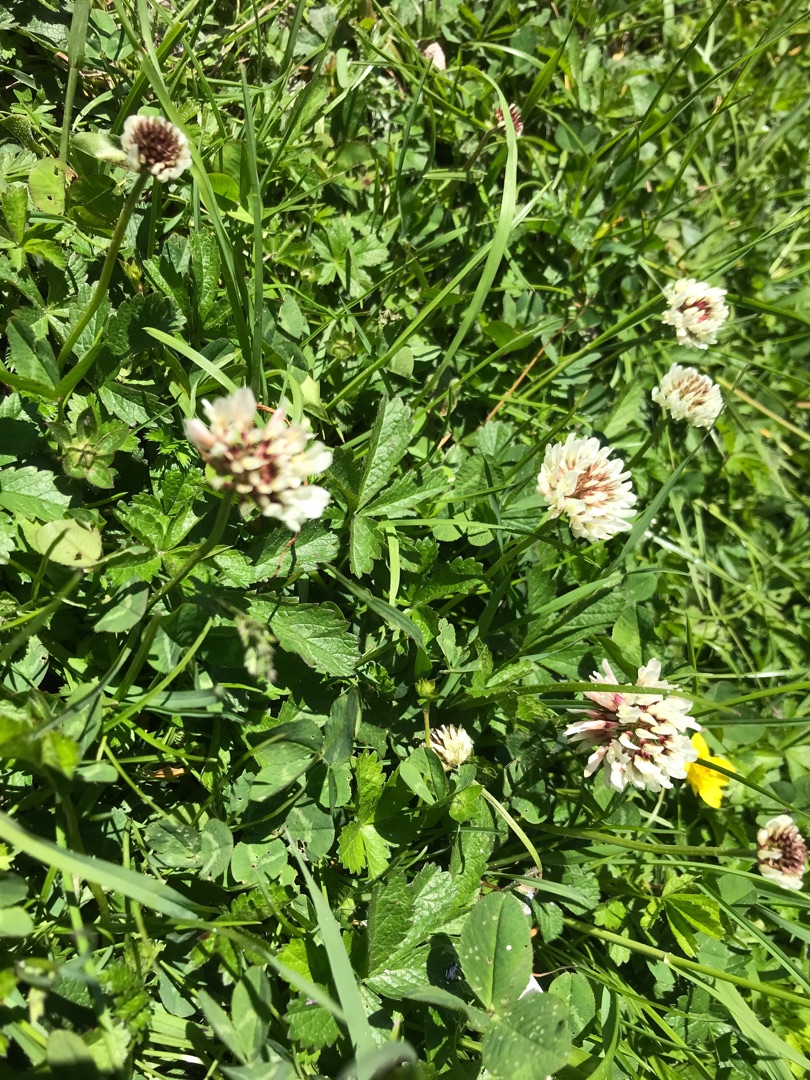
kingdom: Plantae
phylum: Tracheophyta
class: Magnoliopsida
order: Fabales
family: Fabaceae
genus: Trifolium
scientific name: Trifolium repens
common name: Hvid-kløver
